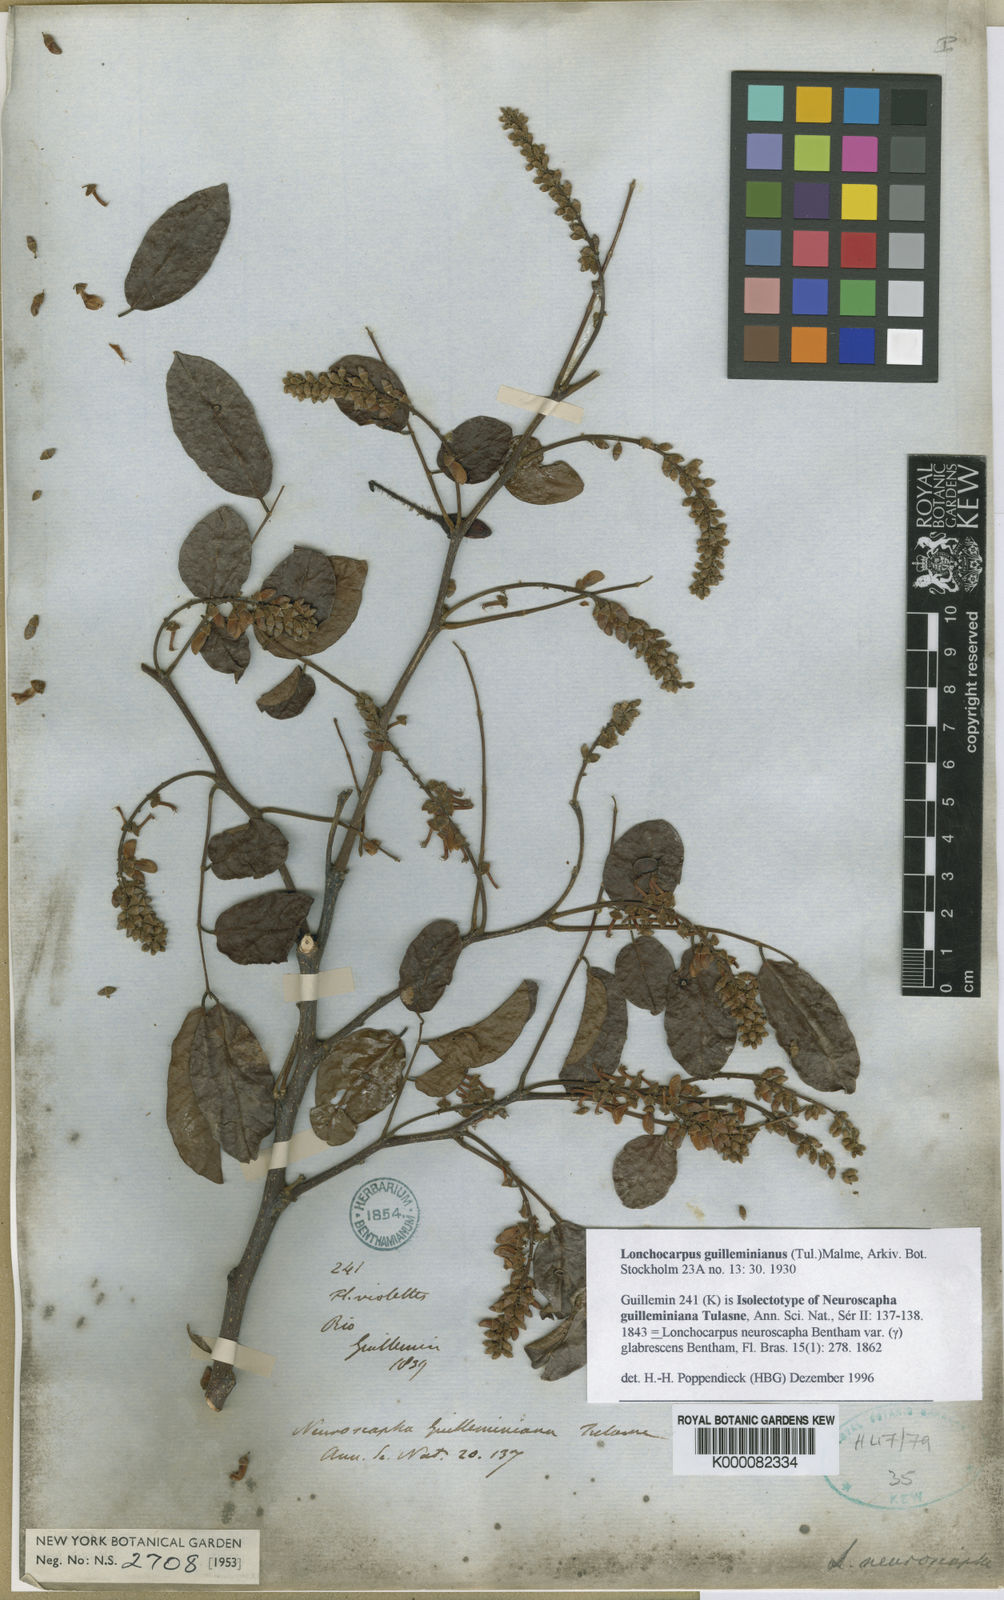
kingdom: Plantae
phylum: Tracheophyta
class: Magnoliopsida
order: Fabales
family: Fabaceae
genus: Lonchocarpus
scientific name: Lonchocarpus
